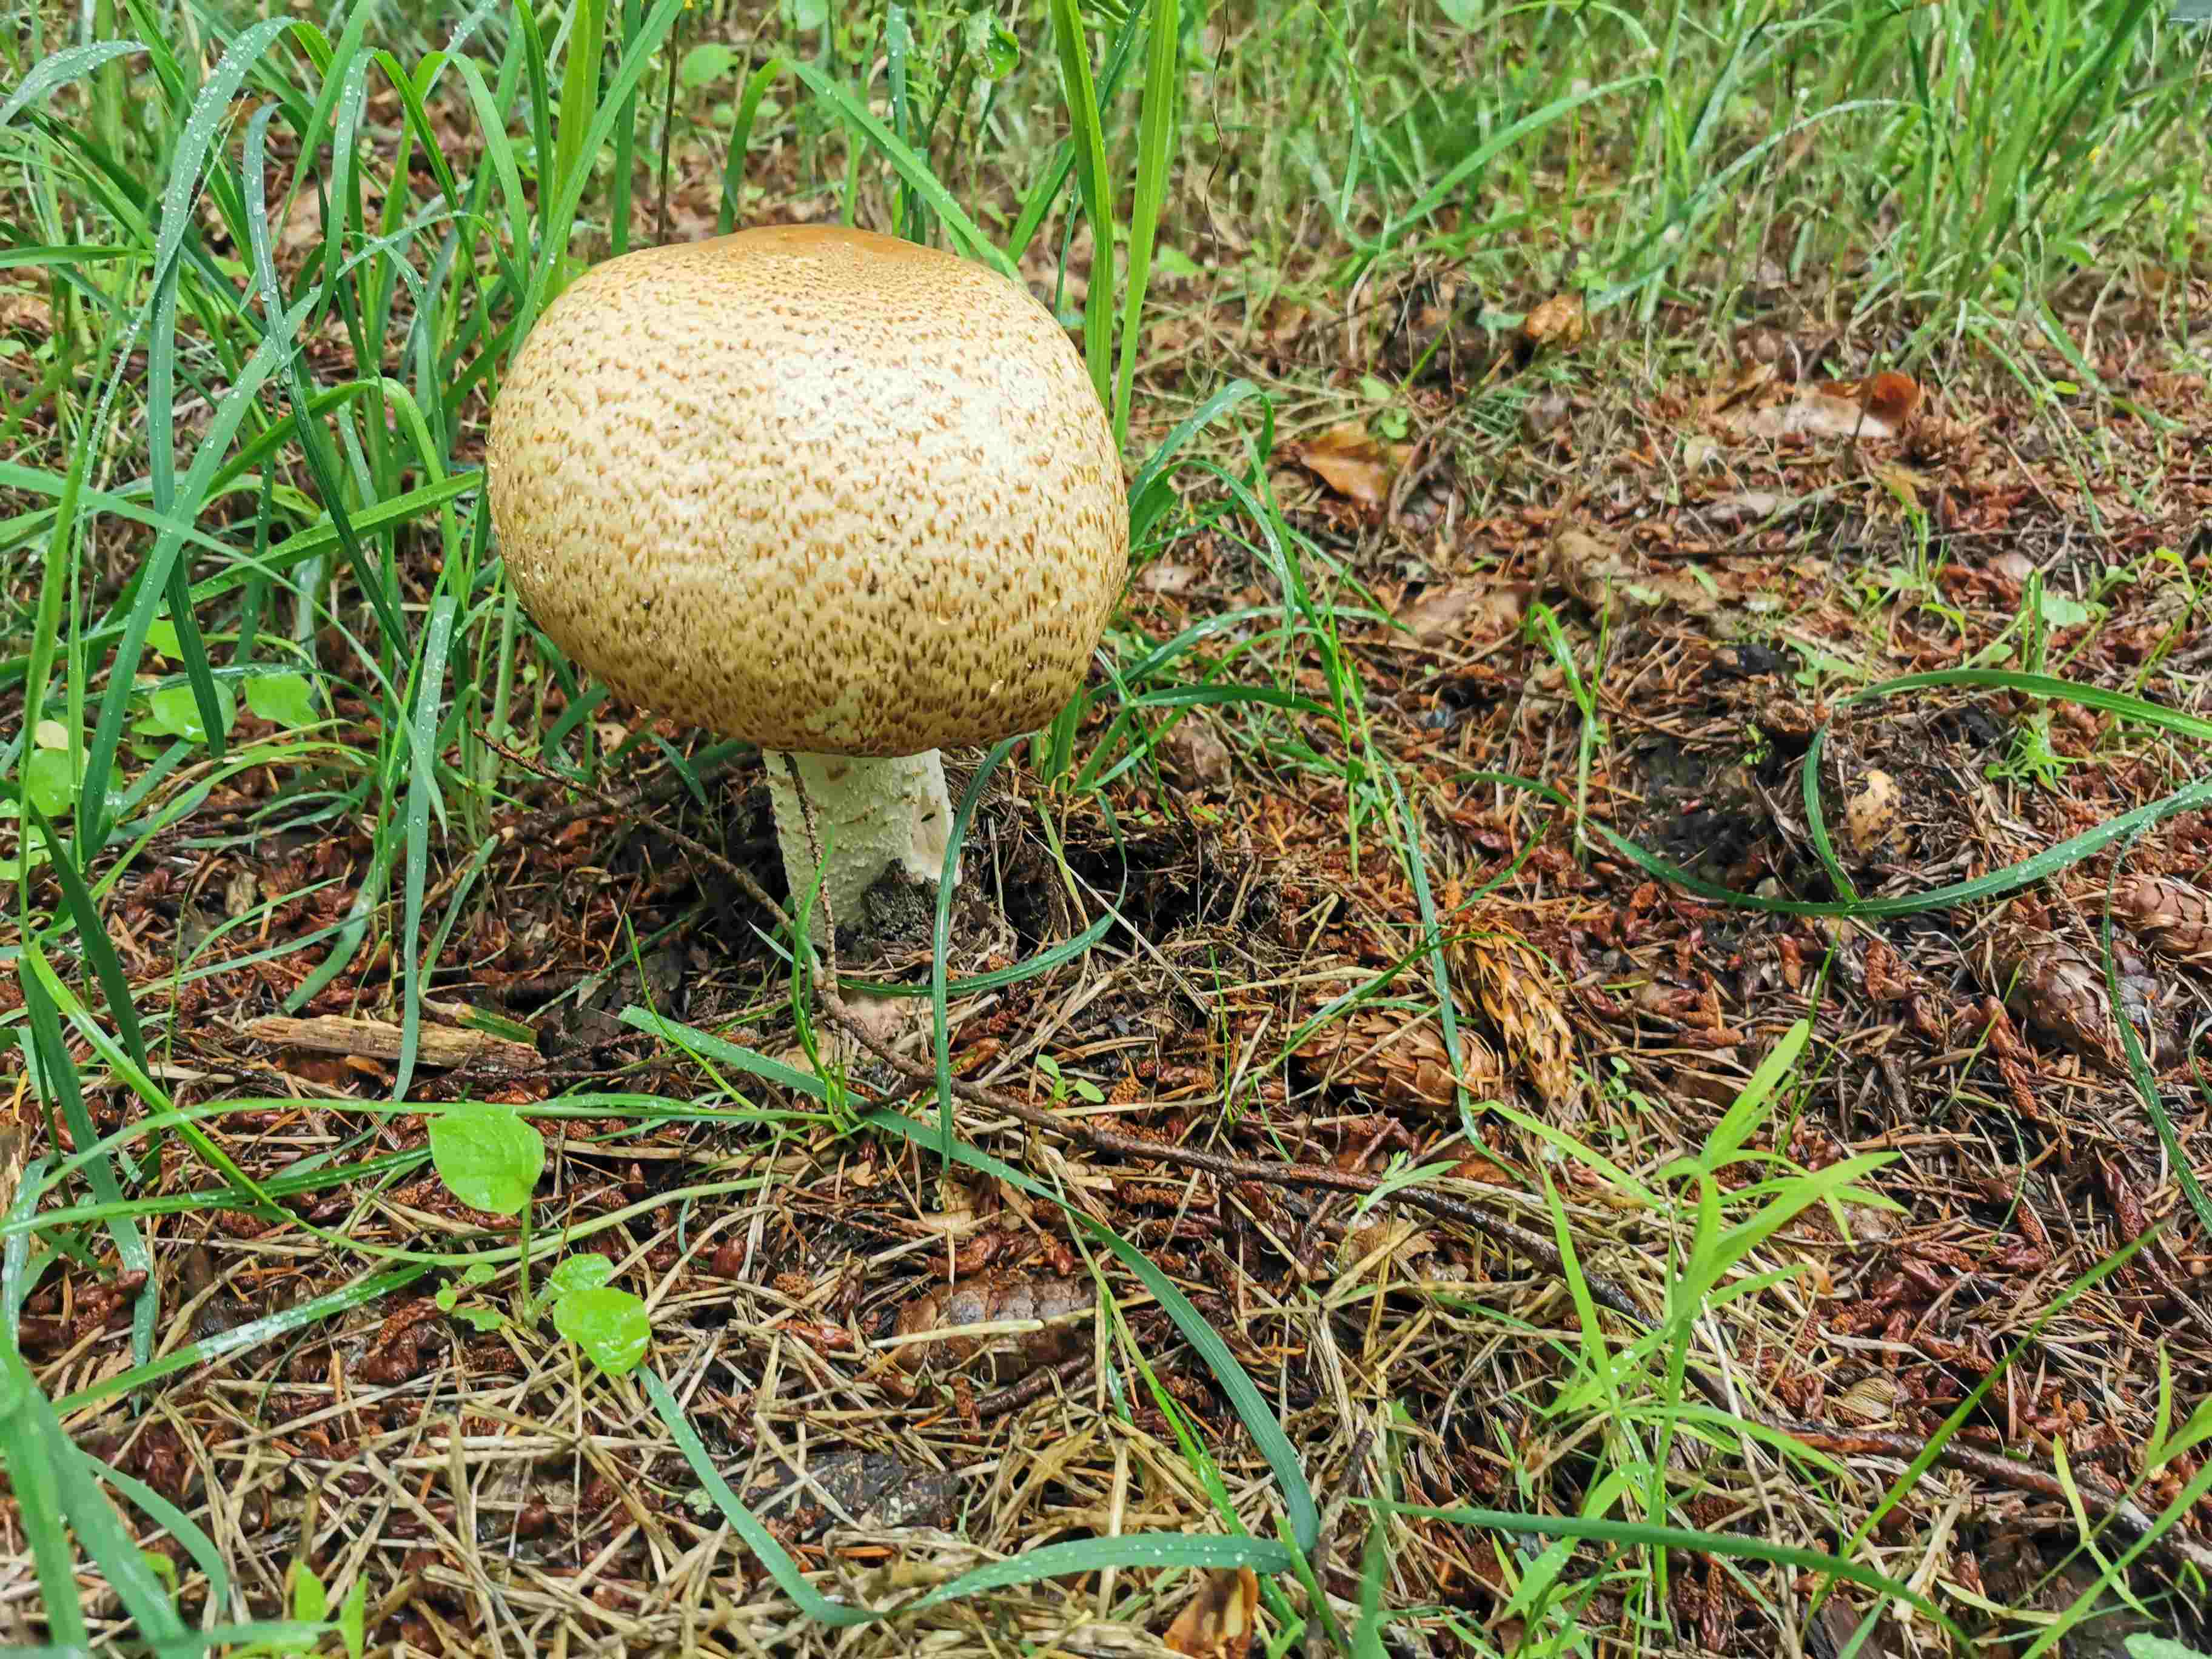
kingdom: Fungi
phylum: Basidiomycota
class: Agaricomycetes
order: Agaricales
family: Agaricaceae
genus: Agaricus
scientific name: Agaricus augustus
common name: prægtig champignon
